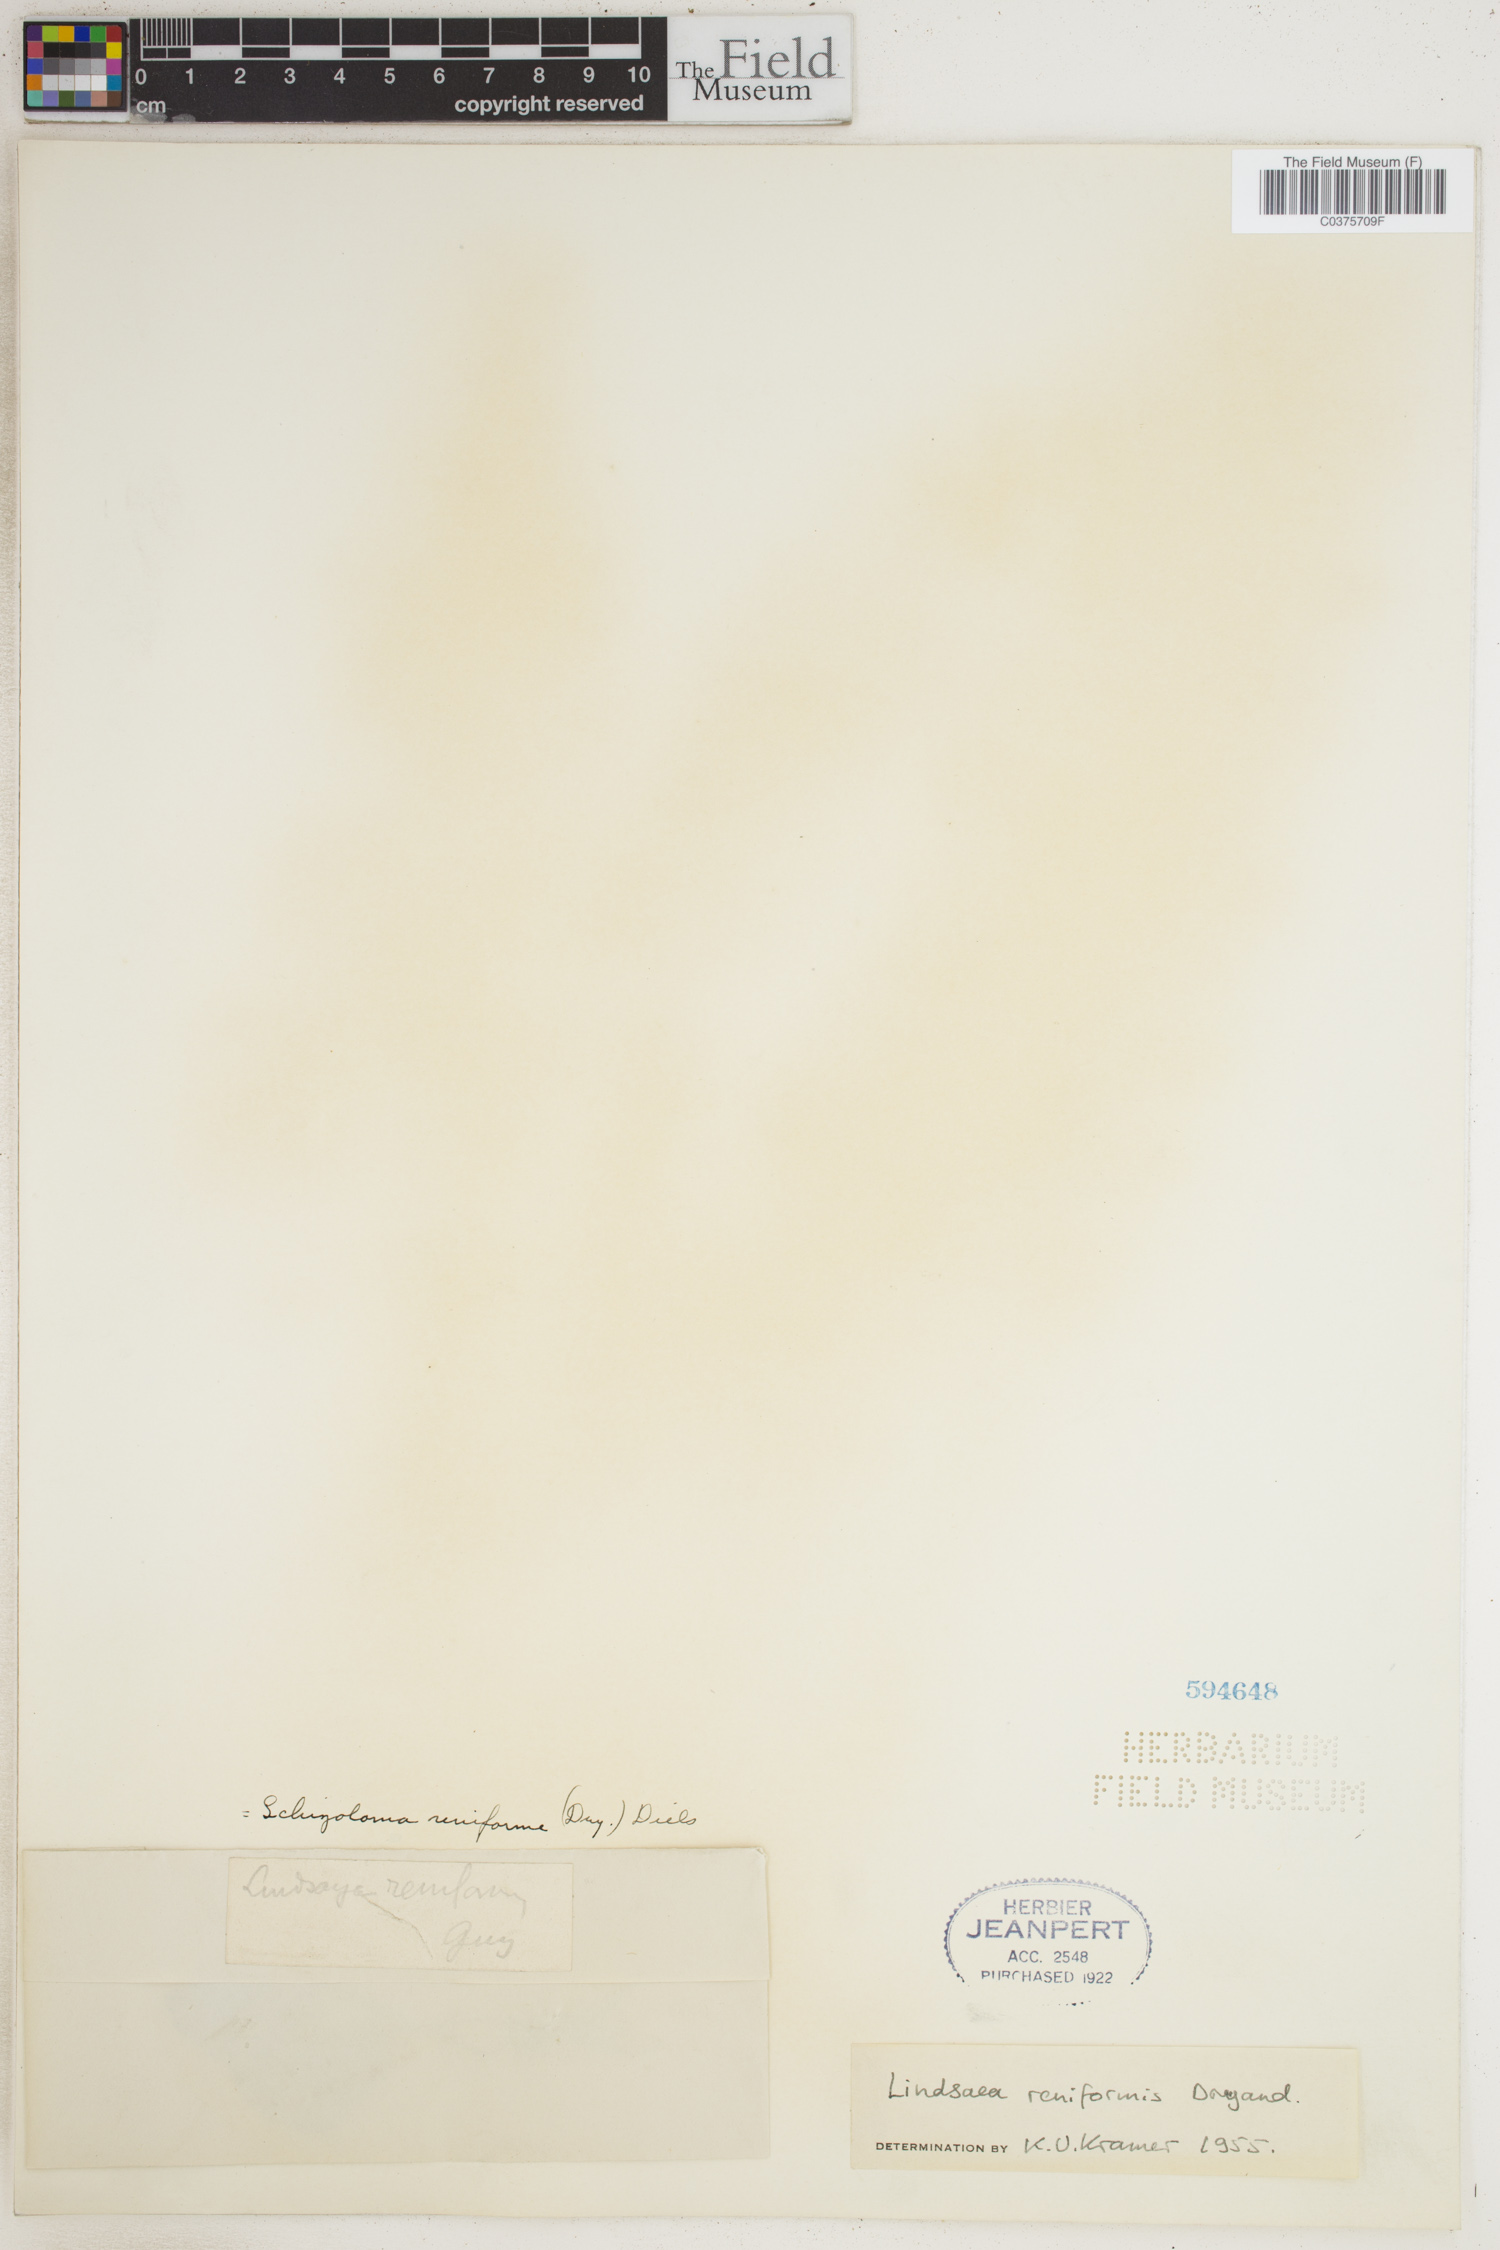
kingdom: Plantae
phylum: Tracheophyta
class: Polypodiopsida
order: Polypodiales
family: Lindsaeaceae
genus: Lindsaea
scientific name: Lindsaea reniformis
